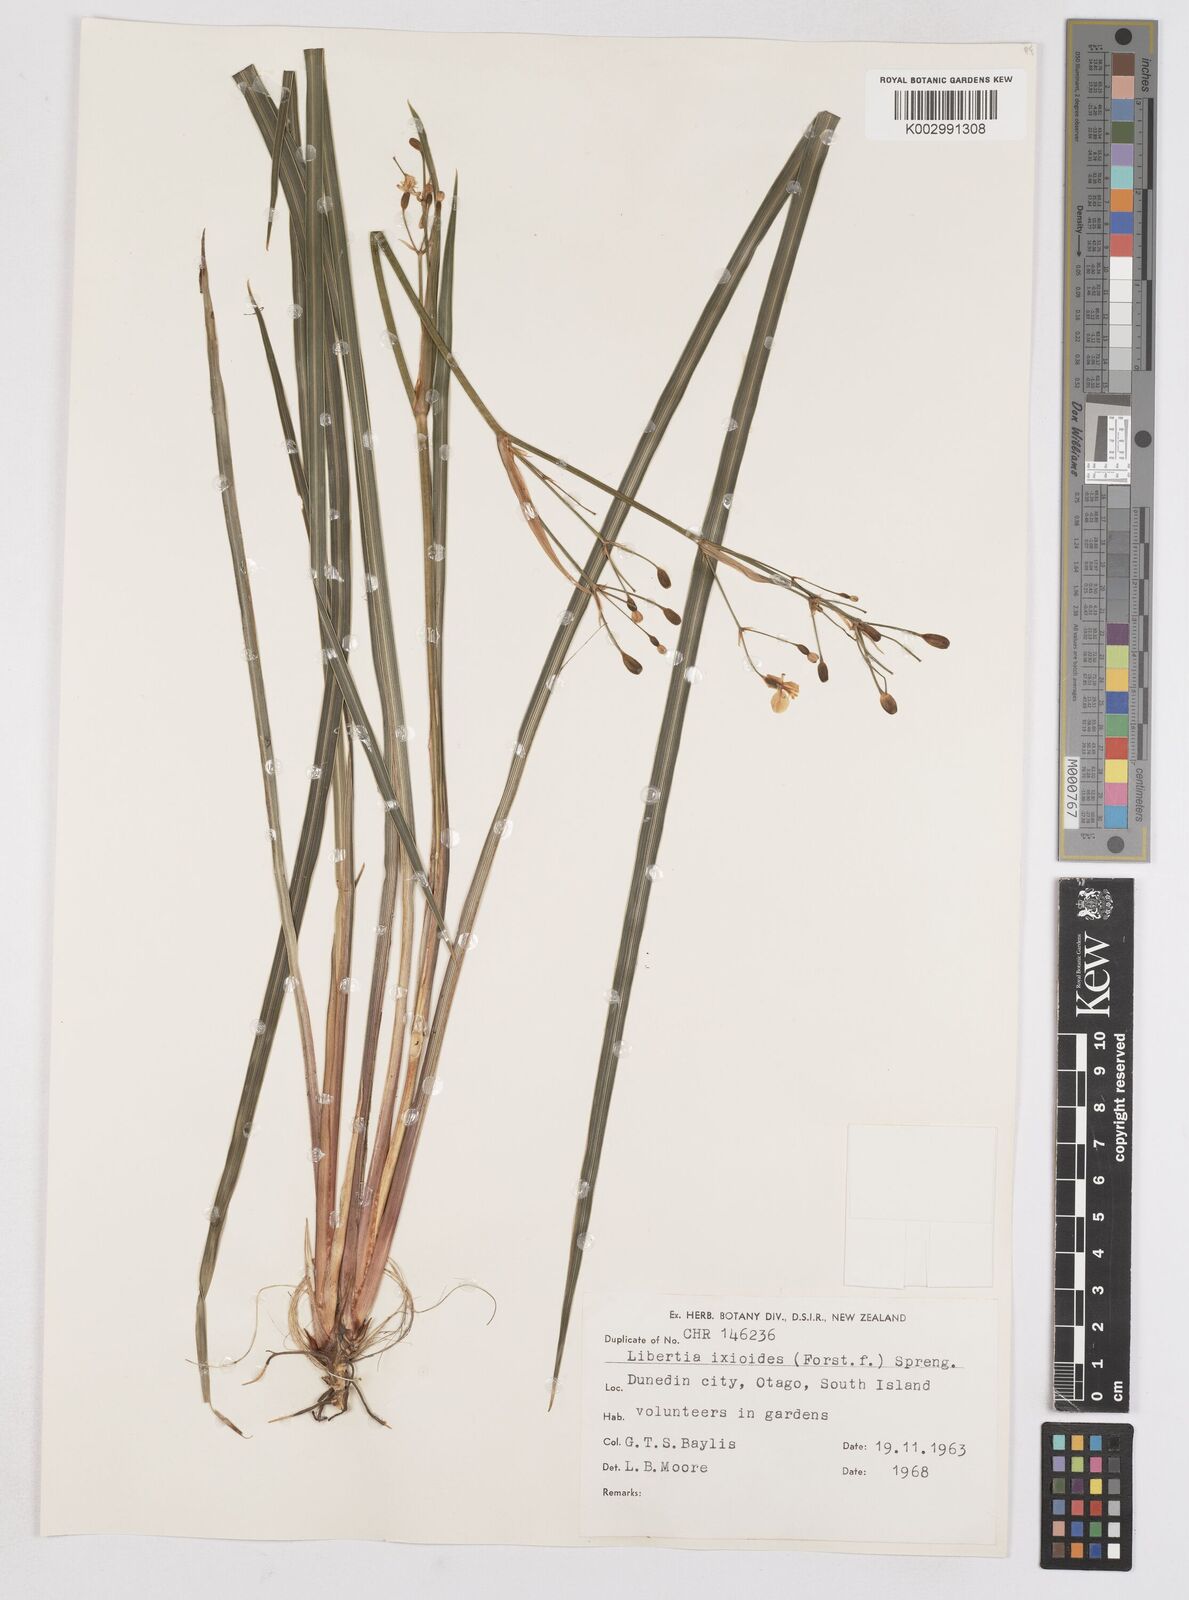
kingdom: Plantae
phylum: Tracheophyta
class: Liliopsida
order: Asparagales
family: Iridaceae
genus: Libertia
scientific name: Libertia ixioides
